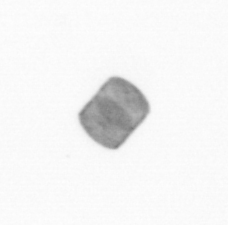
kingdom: Chromista
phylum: Ochrophyta
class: Bacillariophyceae
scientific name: Bacillariophyceae
